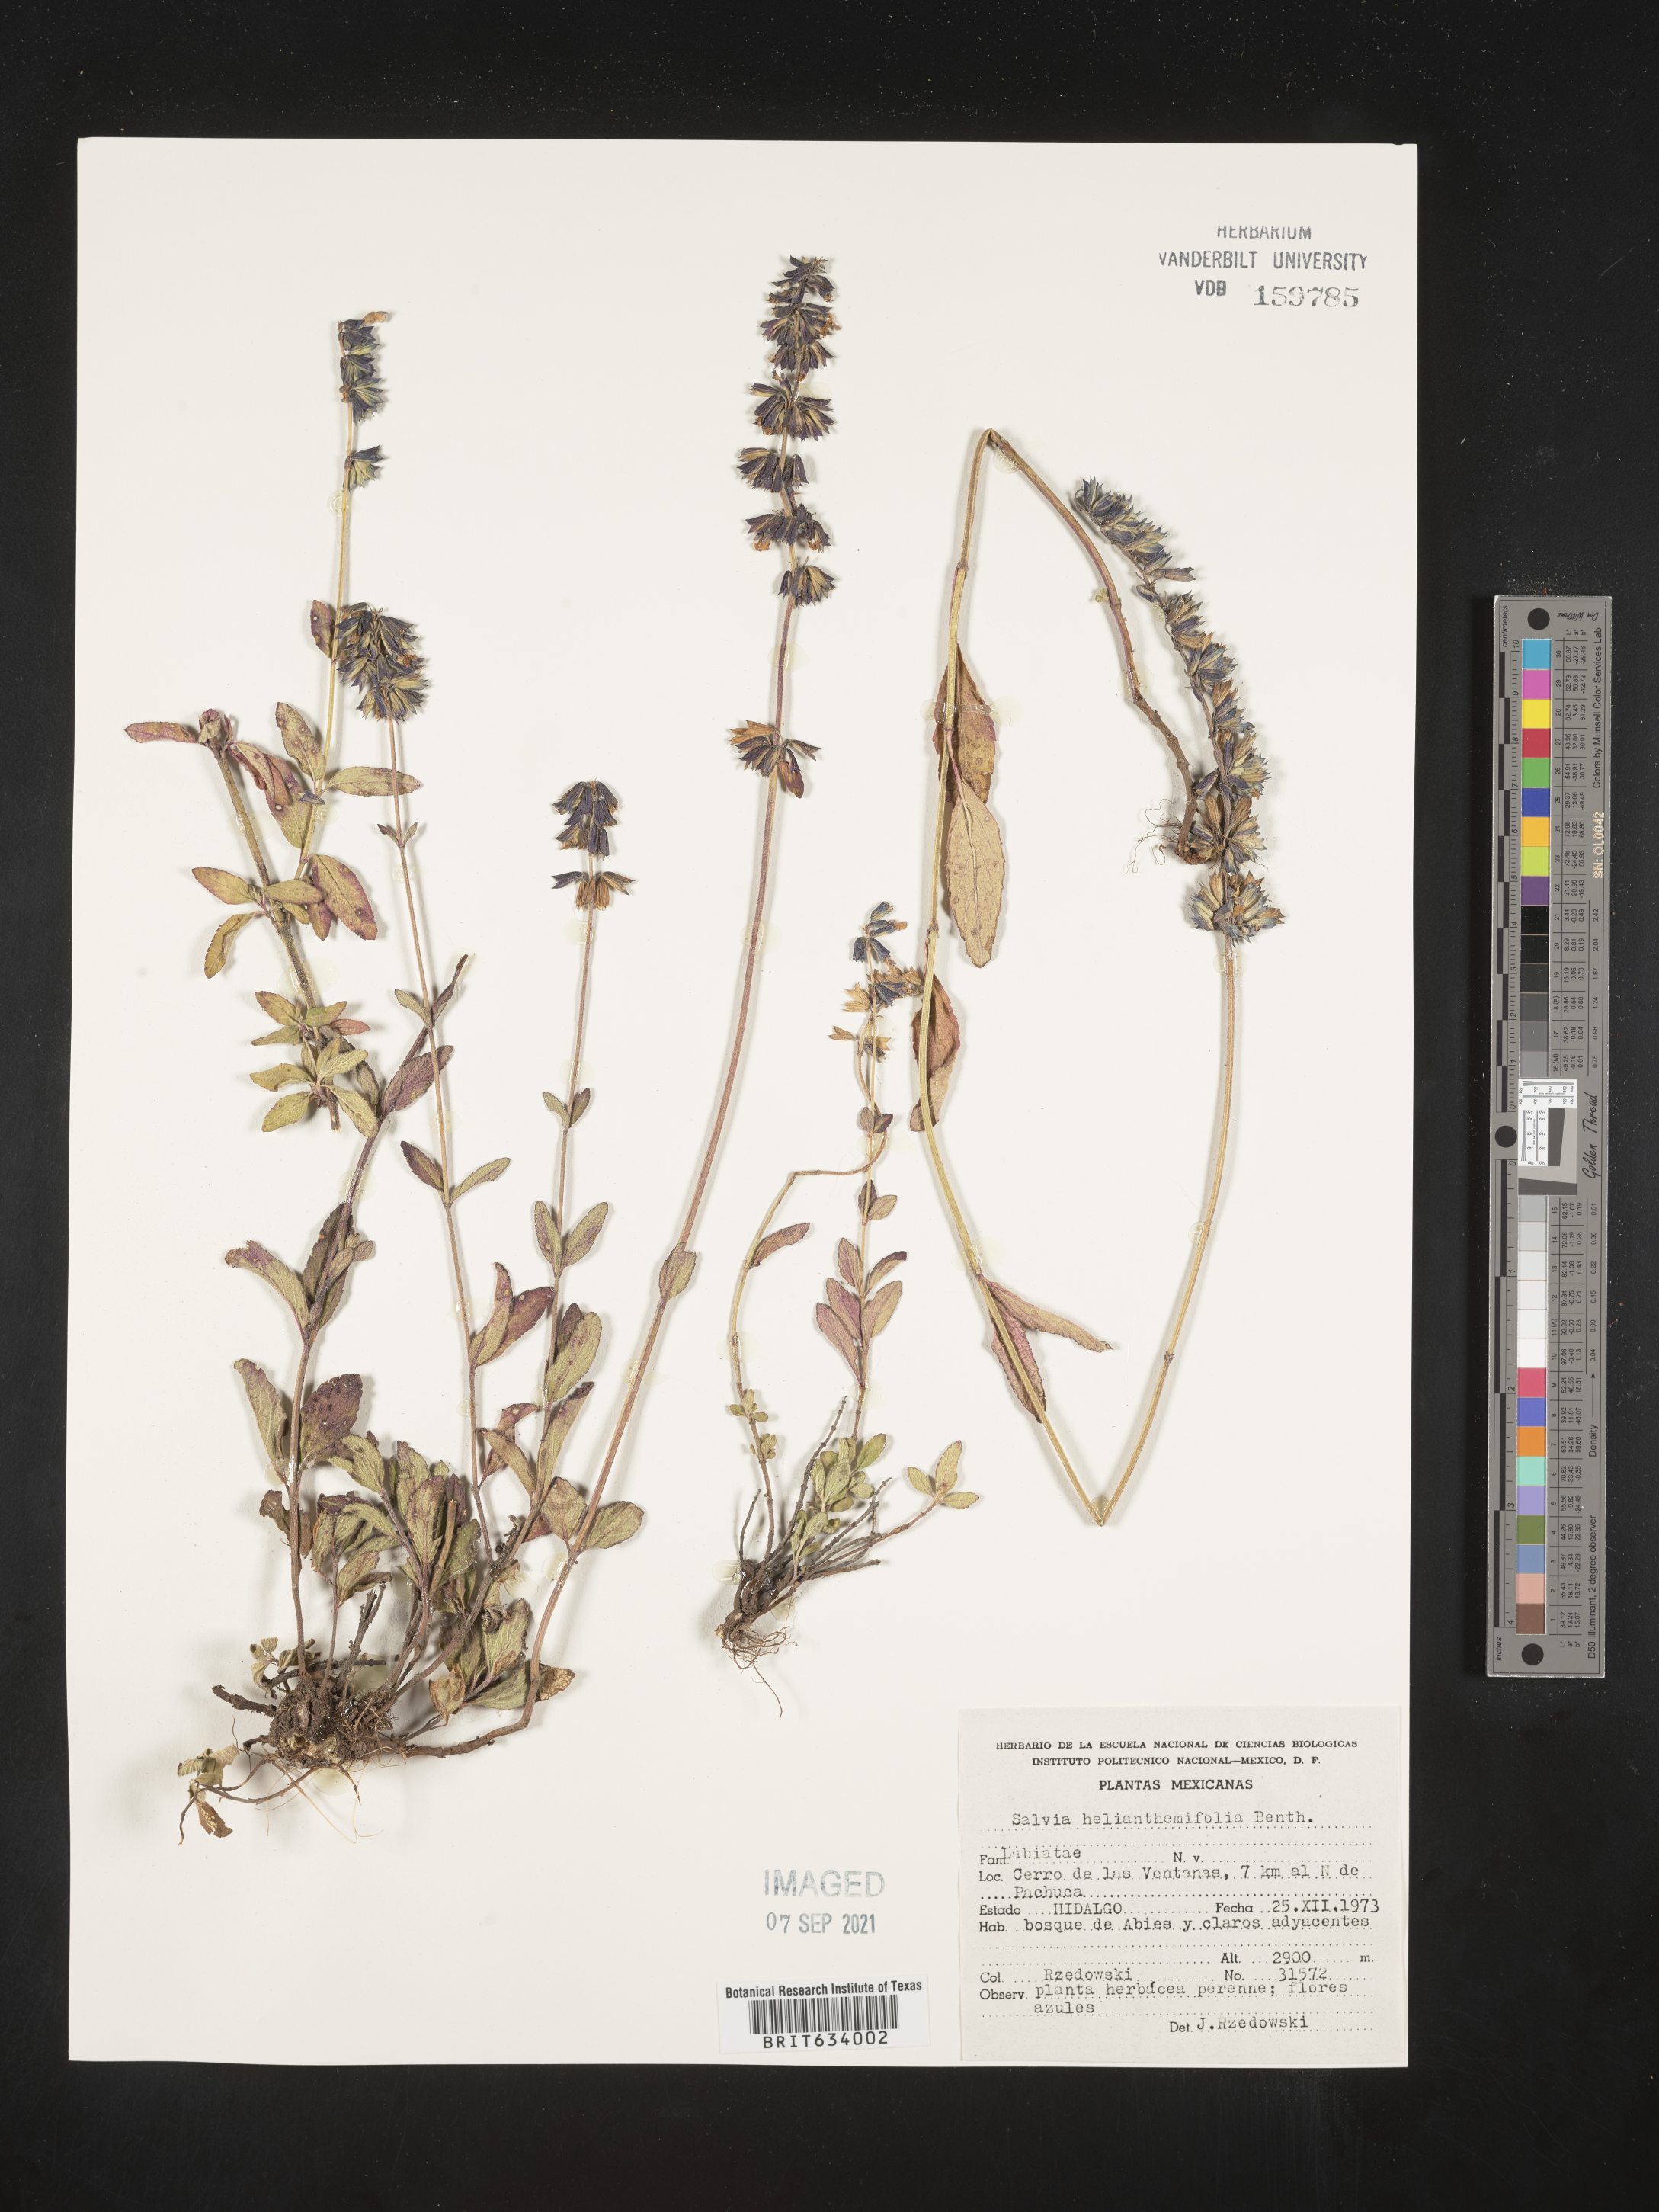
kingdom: Plantae
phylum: Tracheophyta
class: Magnoliopsida
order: Lamiales
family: Lamiaceae
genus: Salvia
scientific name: Salvia
